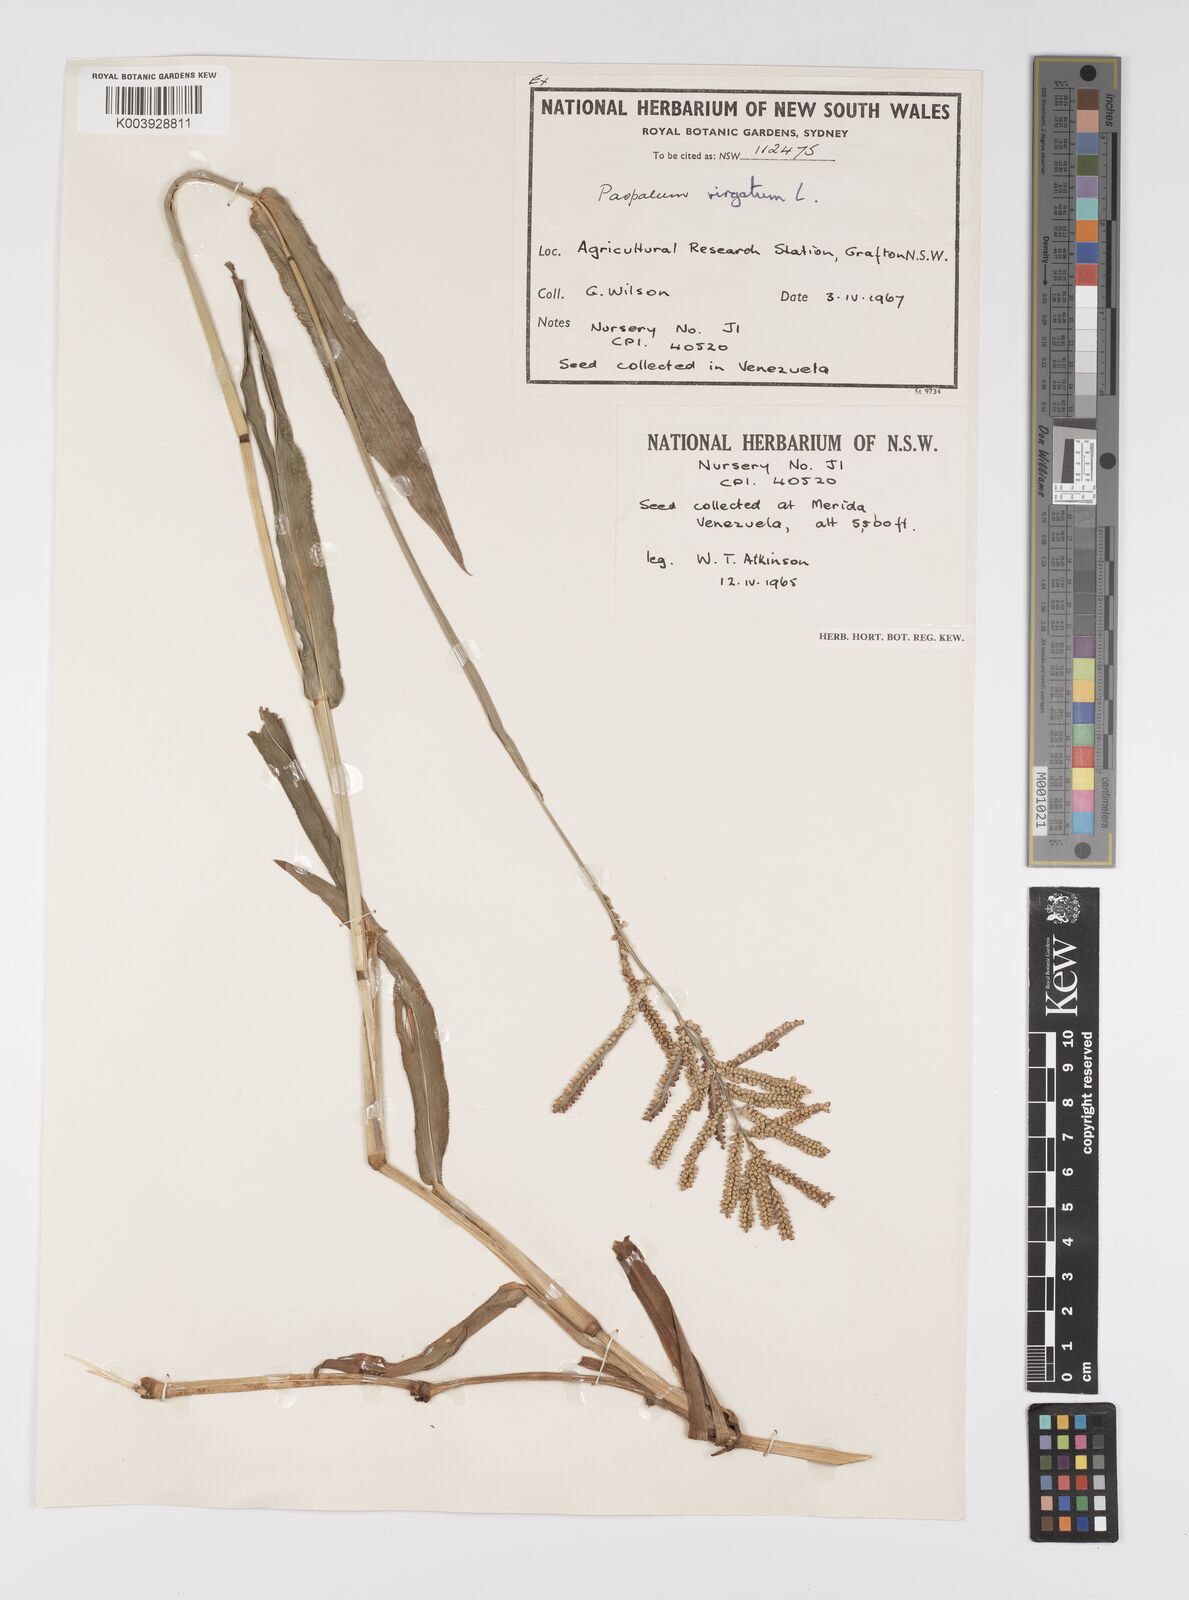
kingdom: Plantae
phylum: Tracheophyta
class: Liliopsida
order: Poales
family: Poaceae
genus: Paspalum
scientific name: Paspalum vaginatum
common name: Seashore paspalum
